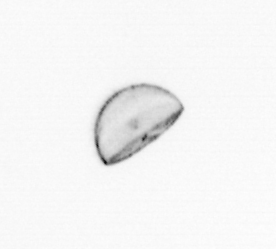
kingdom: Chromista
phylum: Ochrophyta
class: Bacillariophyceae
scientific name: Bacillariophyceae
